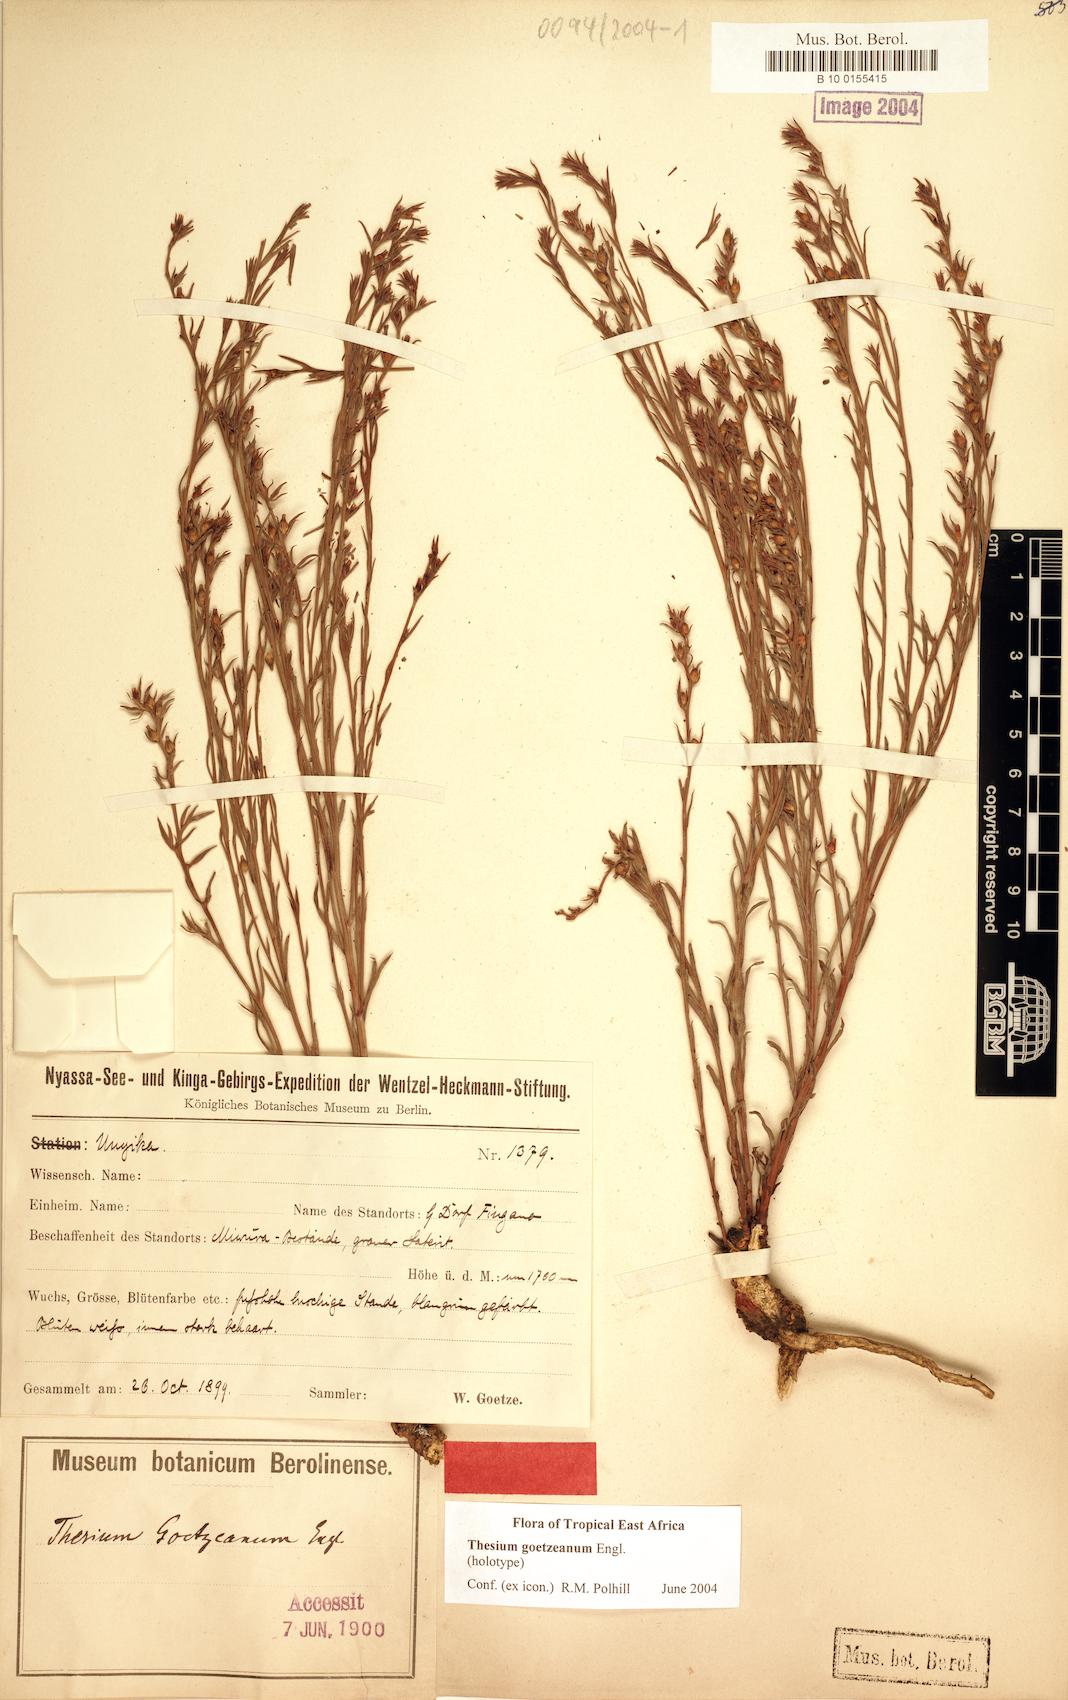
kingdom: Plantae
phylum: Tracheophyta
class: Magnoliopsida
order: Santalales
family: Thesiaceae
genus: Thesium
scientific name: Thesium goetzeanum
